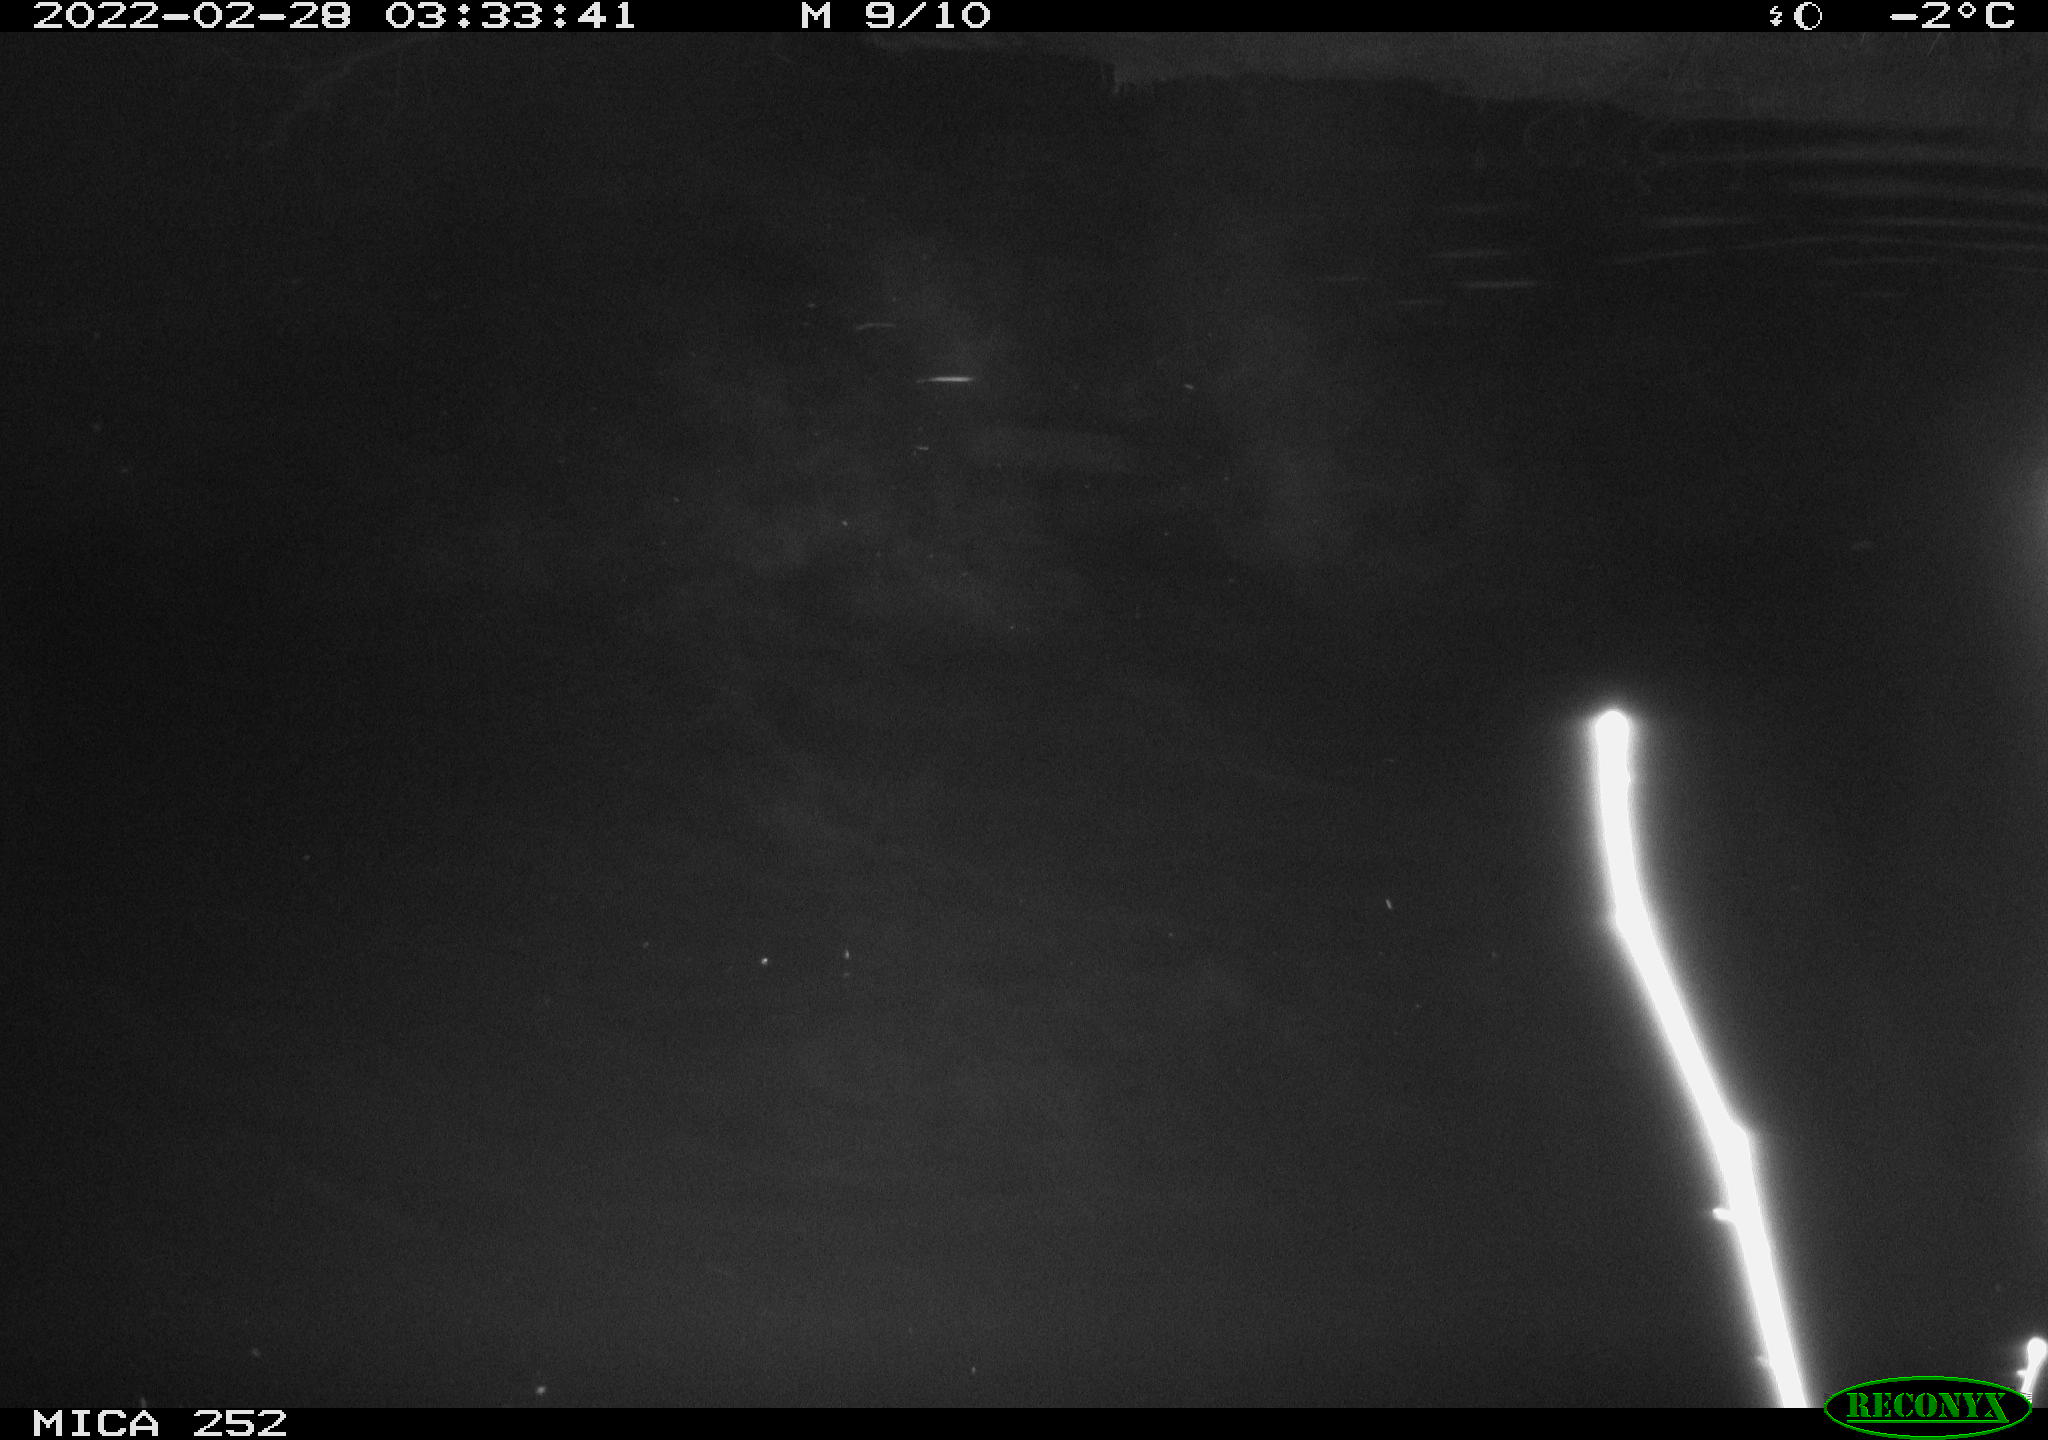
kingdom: Animalia
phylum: Chordata
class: Mammalia
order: Rodentia
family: Castoridae
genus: Castor
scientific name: Castor fiber
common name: Eurasian beaver
